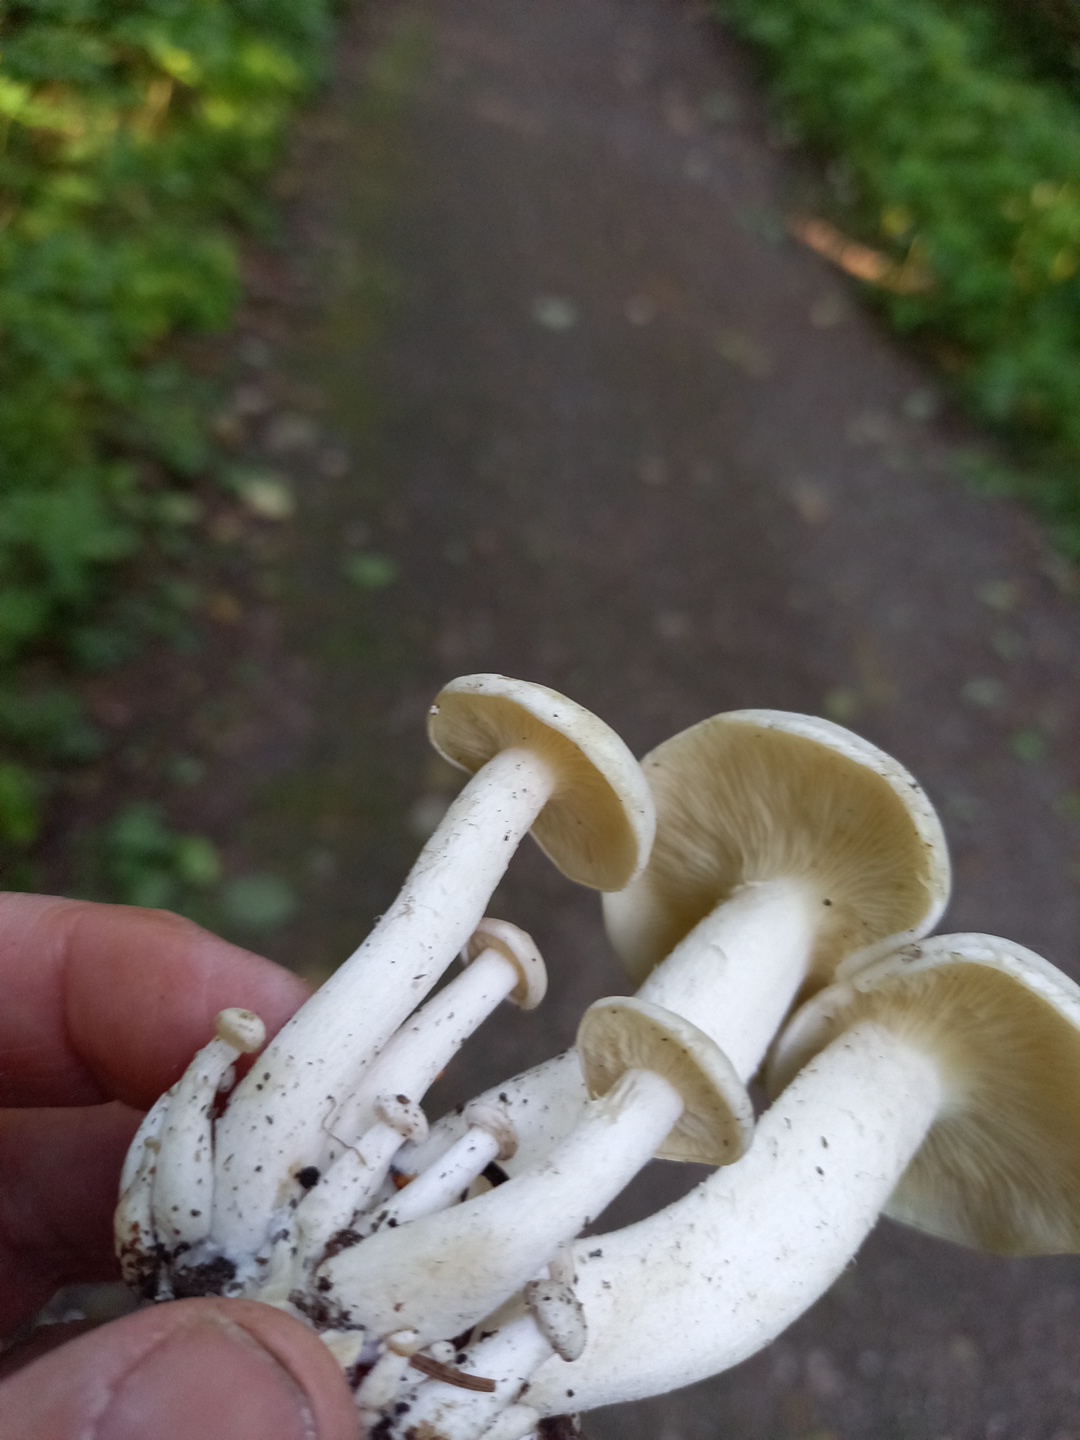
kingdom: Fungi
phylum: Basidiomycota
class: Agaricomycetes
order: Agaricales
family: Tricholomataceae
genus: Leucocybe
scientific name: Leucocybe connata
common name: knippe-tragthat
